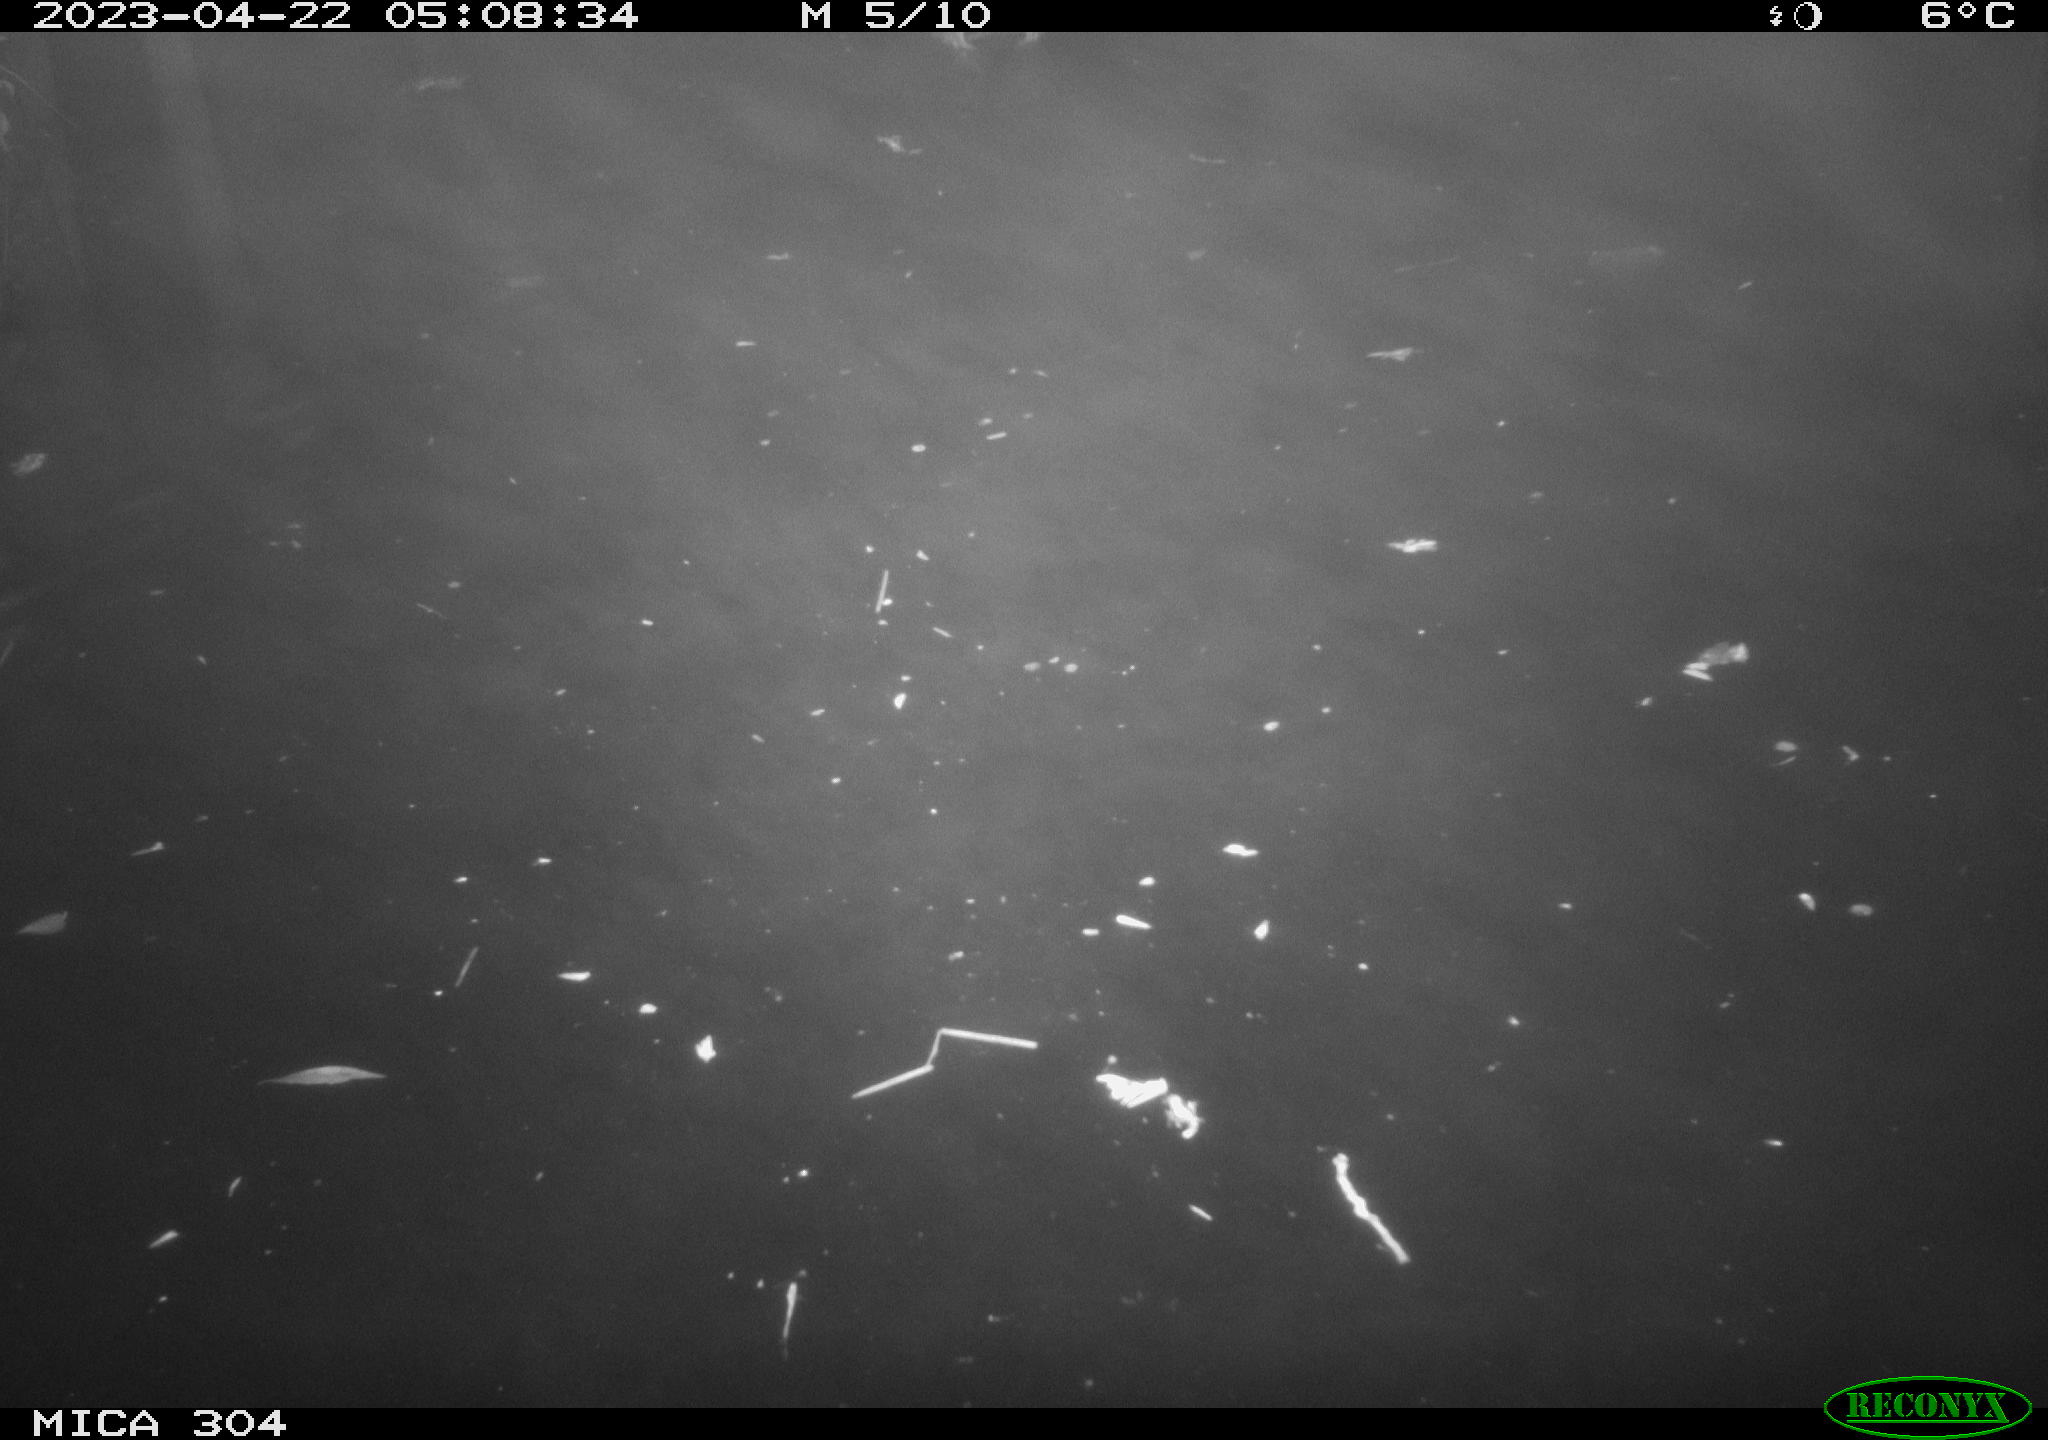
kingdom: Animalia
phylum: Chordata
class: Aves
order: Anseriformes
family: Anatidae
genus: Anas
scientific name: Anas
